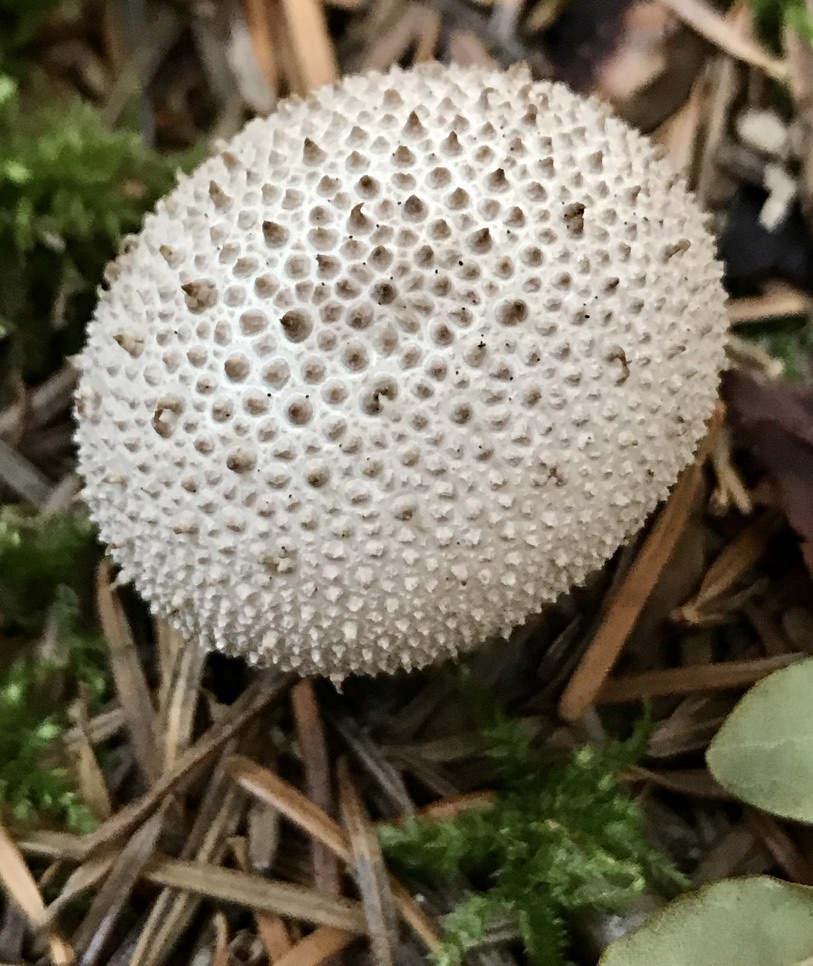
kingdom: Fungi
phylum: Basidiomycota
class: Agaricomycetes
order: Agaricales
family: Lycoperdaceae
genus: Lycoperdon
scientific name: Lycoperdon perlatum
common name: krystal-støvbold
